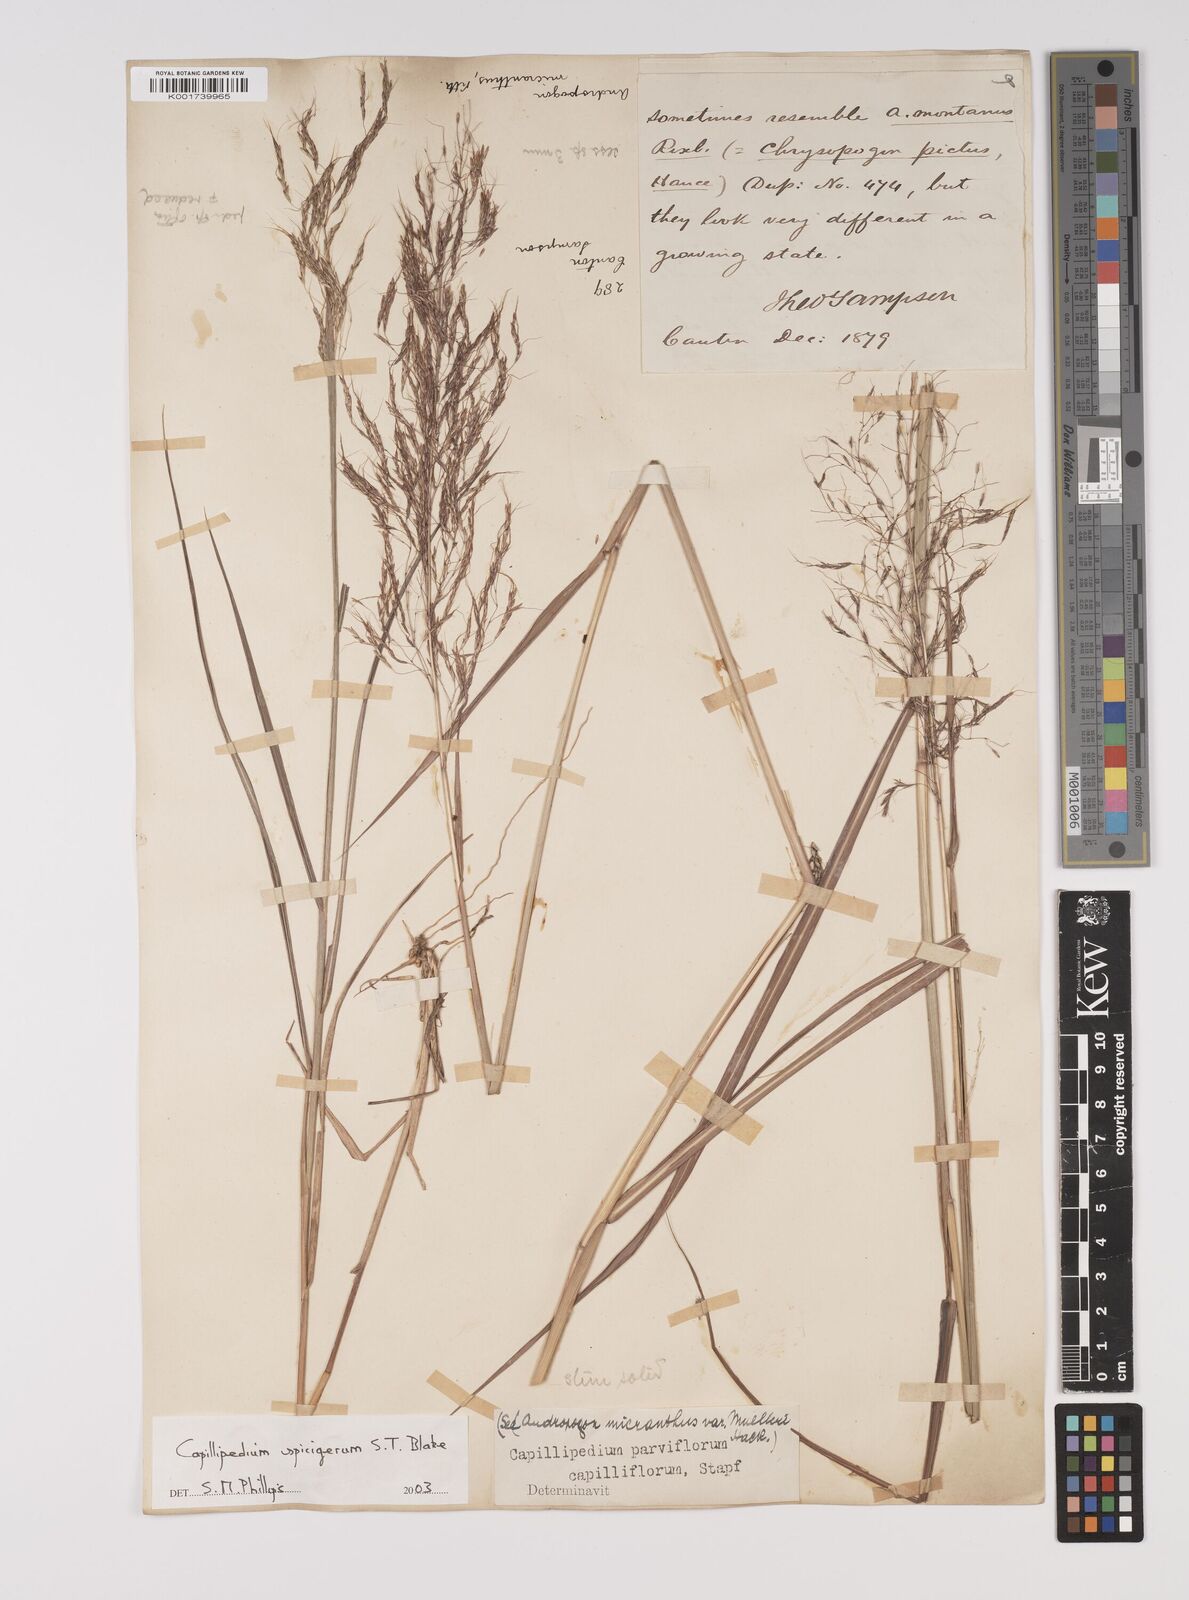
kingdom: Plantae
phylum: Tracheophyta
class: Liliopsida
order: Poales
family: Poaceae
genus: Capillipedium
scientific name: Capillipedium spicigerum
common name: Scented-top grass
